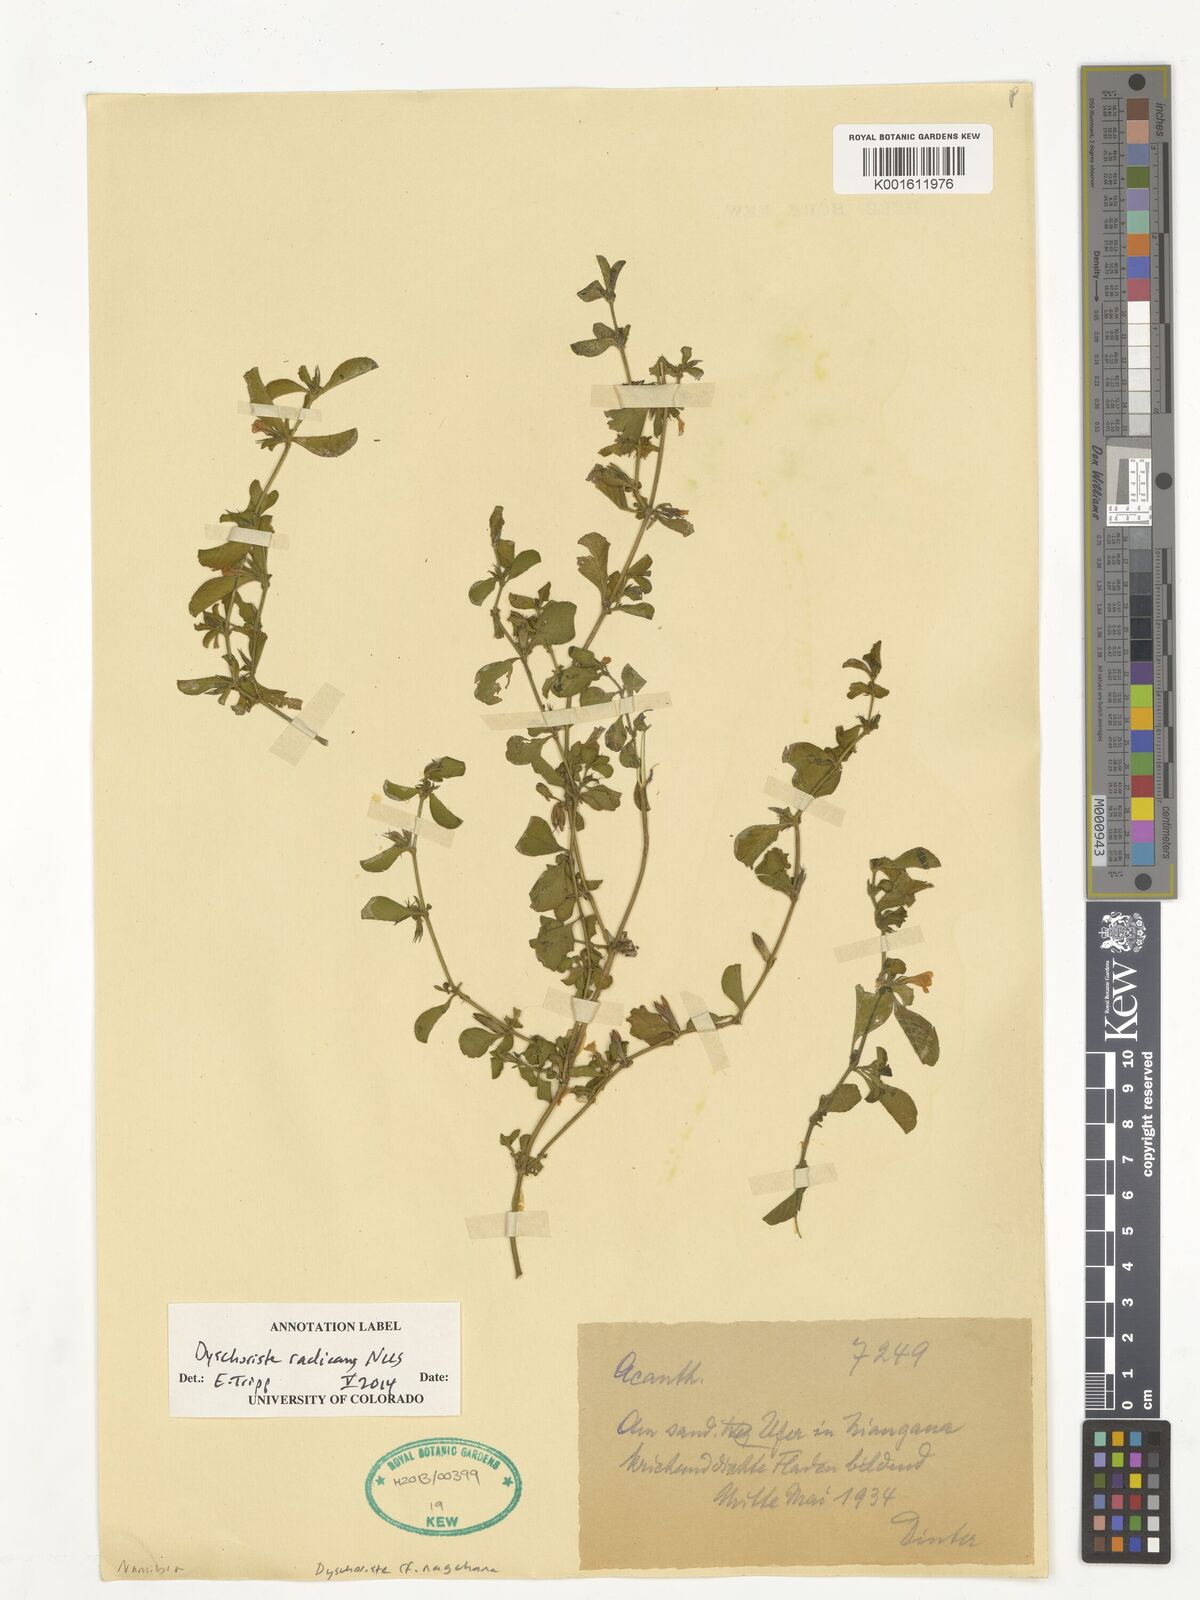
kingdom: Plantae
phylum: Tracheophyta
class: Magnoliopsida
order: Lamiales
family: Acanthaceae
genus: Dyschoriste
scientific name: Dyschoriste radicans
